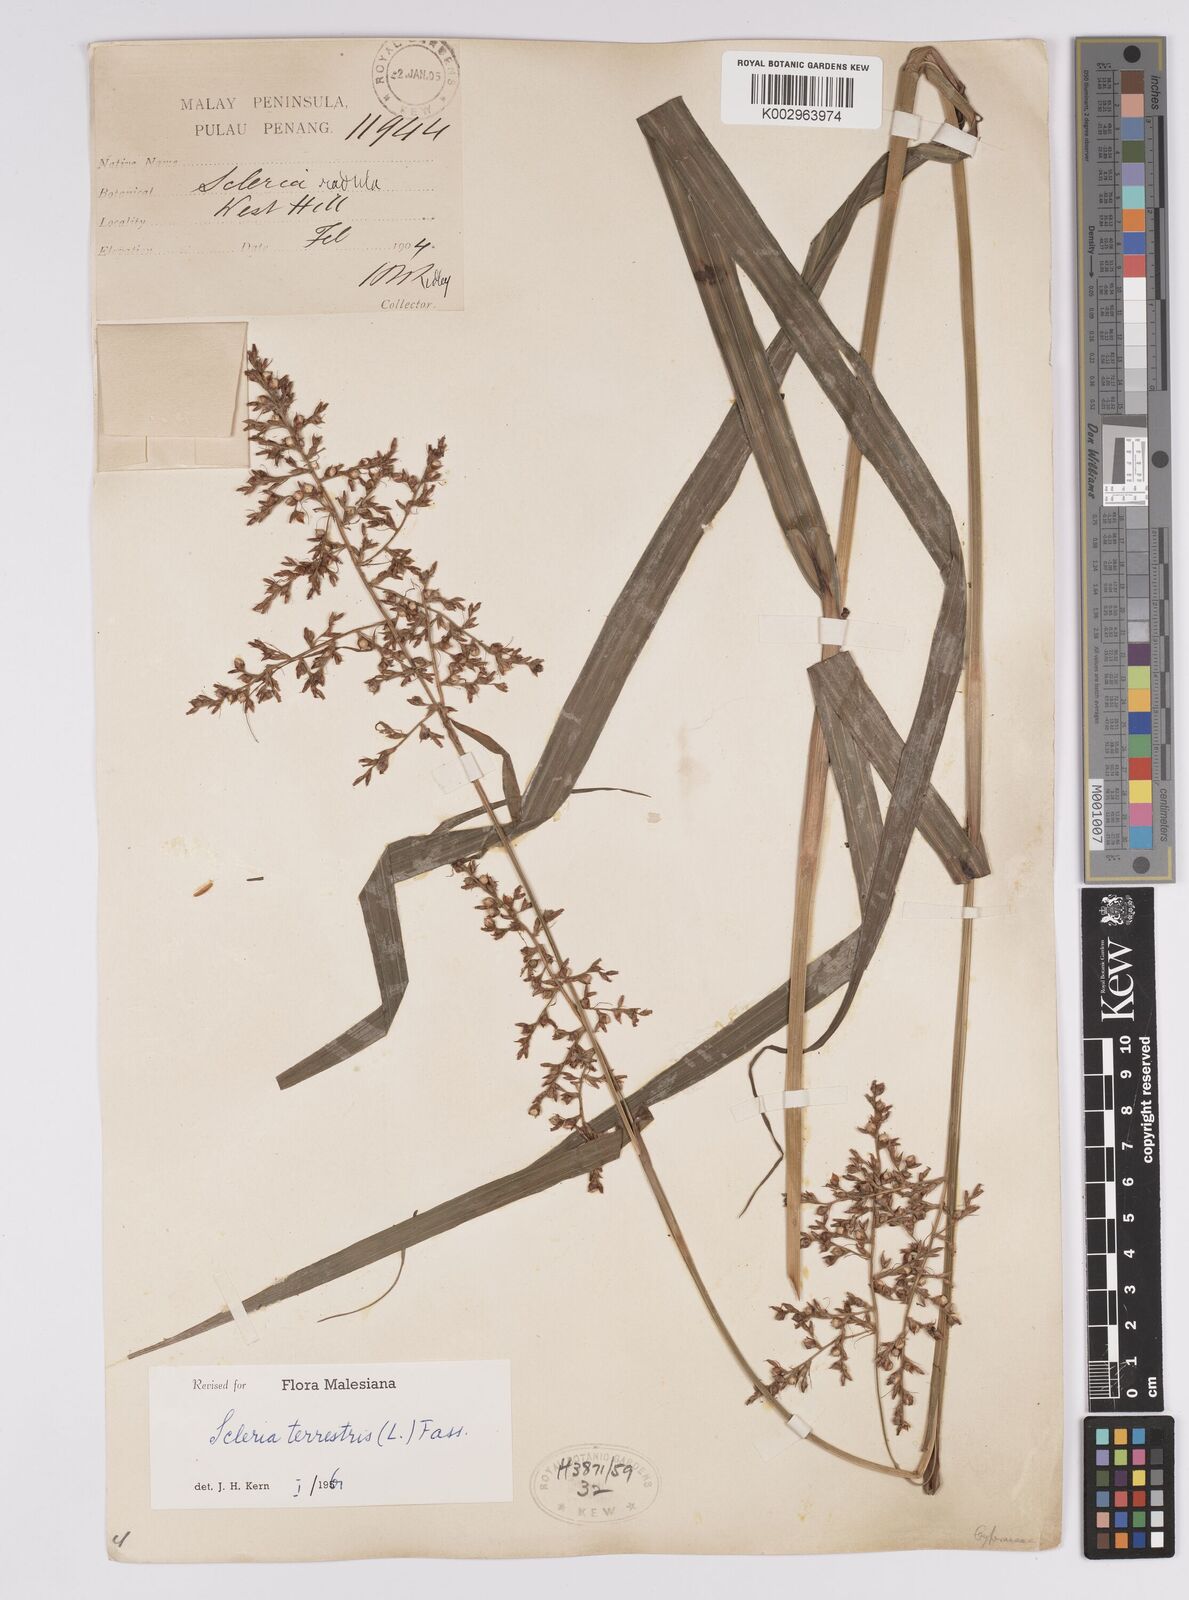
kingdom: Plantae
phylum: Tracheophyta
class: Liliopsida
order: Poales
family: Cyperaceae
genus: Scleria
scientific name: Scleria terrestris
